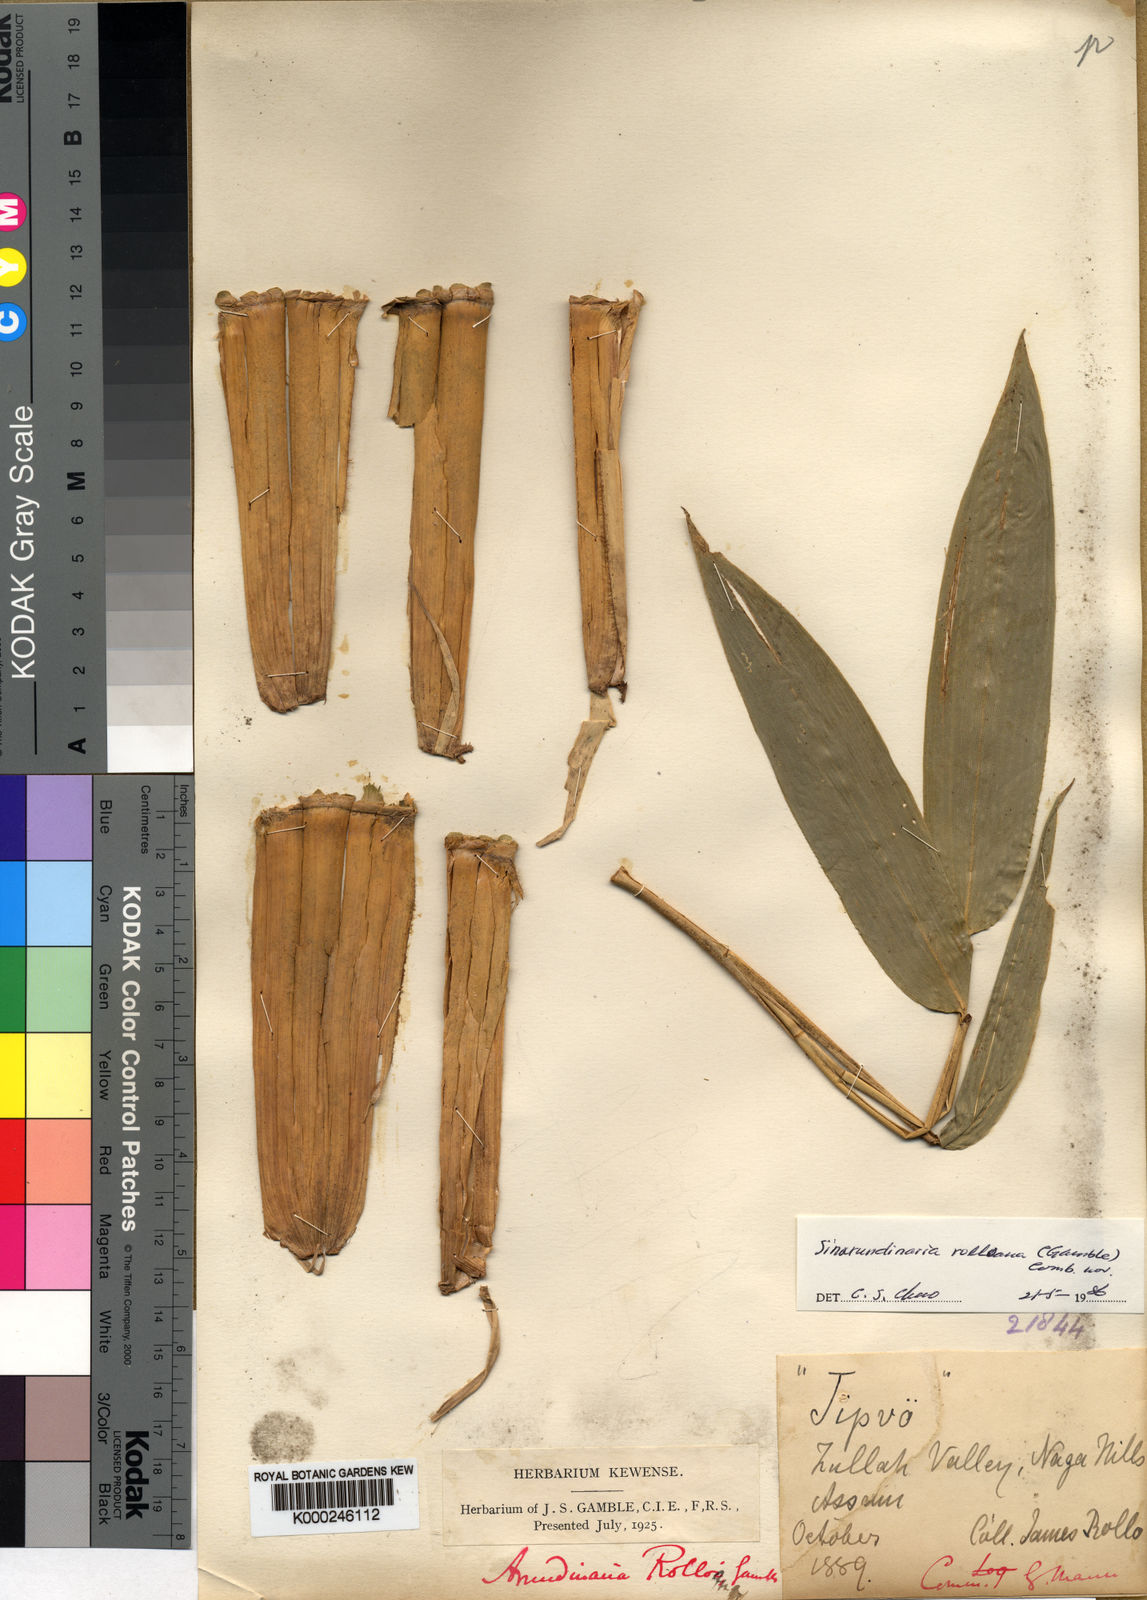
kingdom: Plantae
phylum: Tracheophyta
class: Liliopsida
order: Poales
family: Poaceae
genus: Yushania
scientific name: Yushania rolloana
